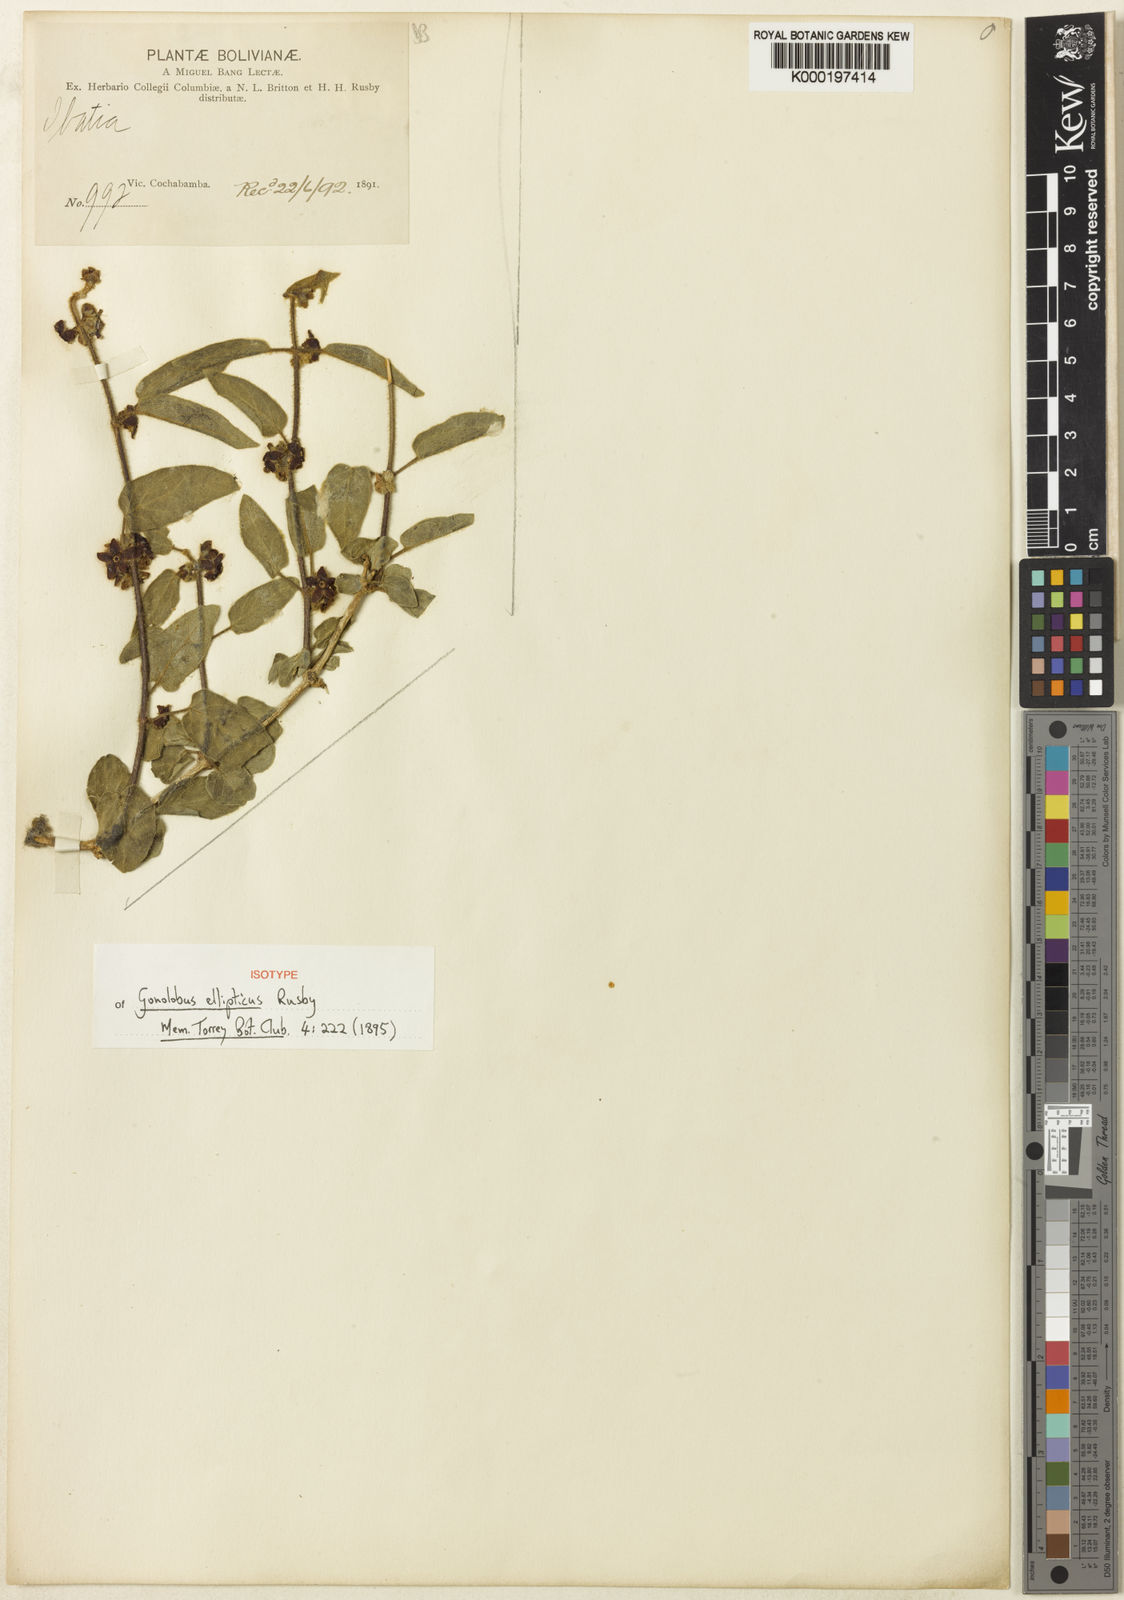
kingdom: Plantae
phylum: Tracheophyta
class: Magnoliopsida
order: Gentianales
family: Apocynaceae
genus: Ibatia
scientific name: Ibatia elliptica
